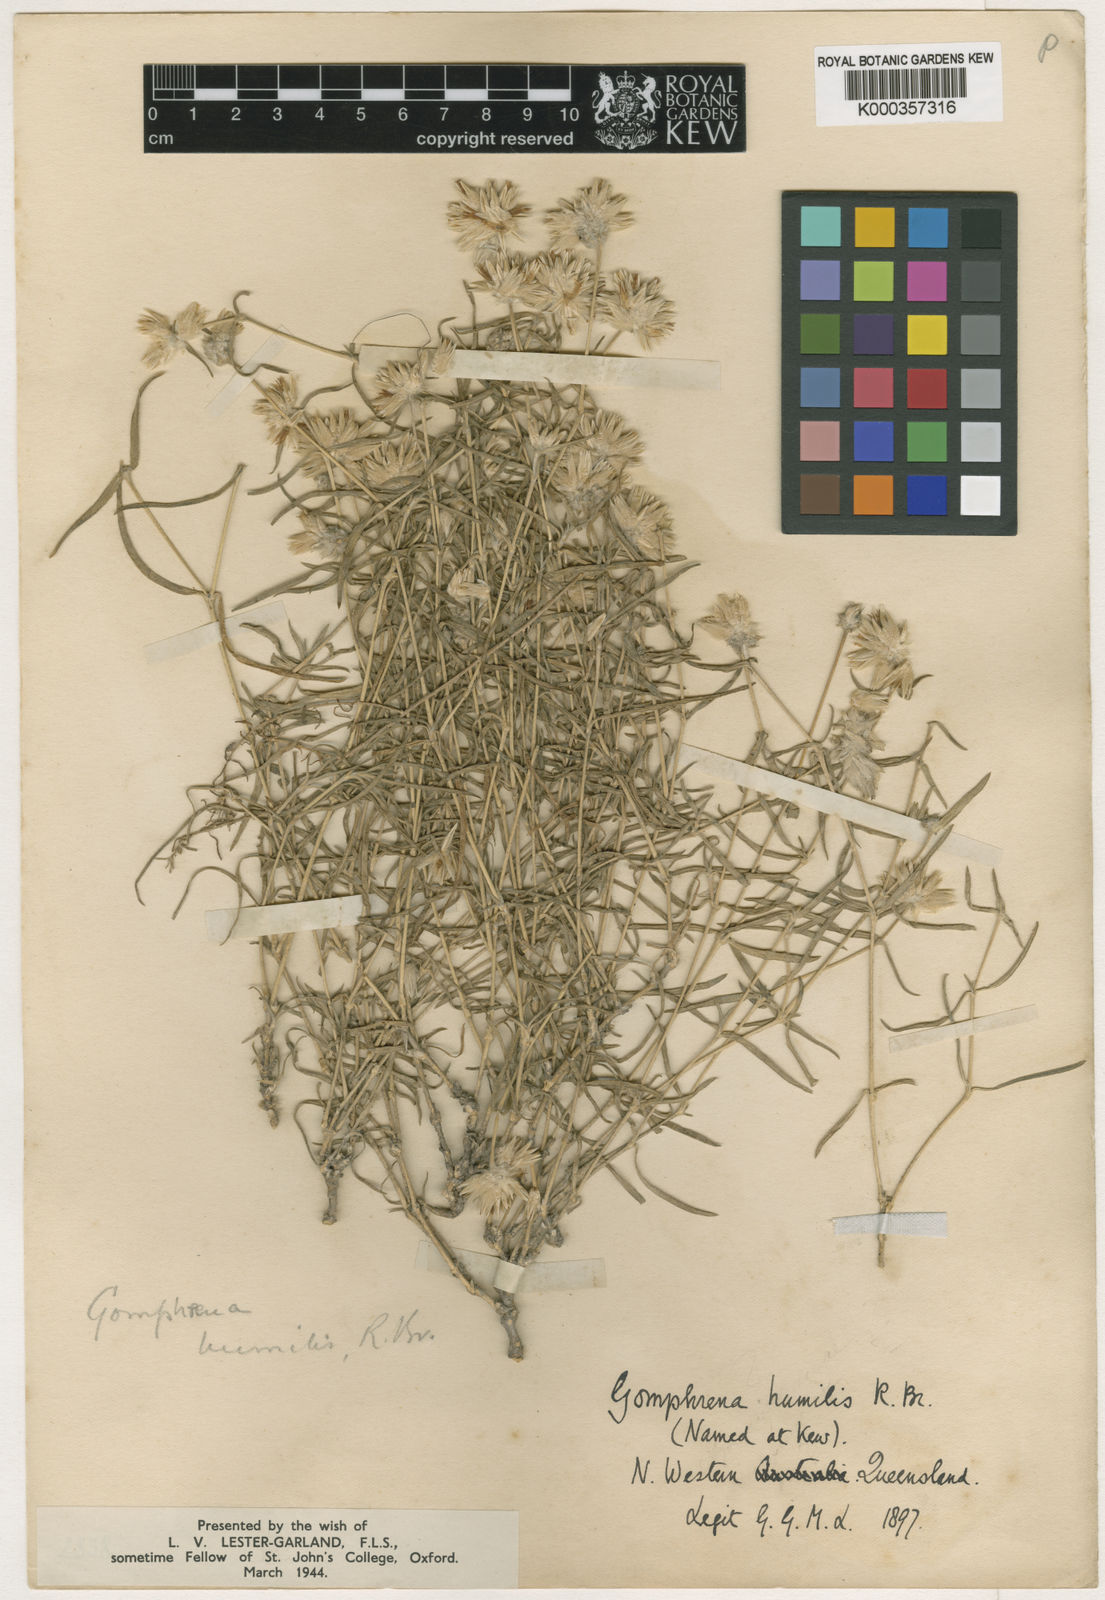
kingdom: Plantae
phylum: Tracheophyta
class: Magnoliopsida
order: Caryophyllales
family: Amaranthaceae
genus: Gomphrena
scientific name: Gomphrena humilis
